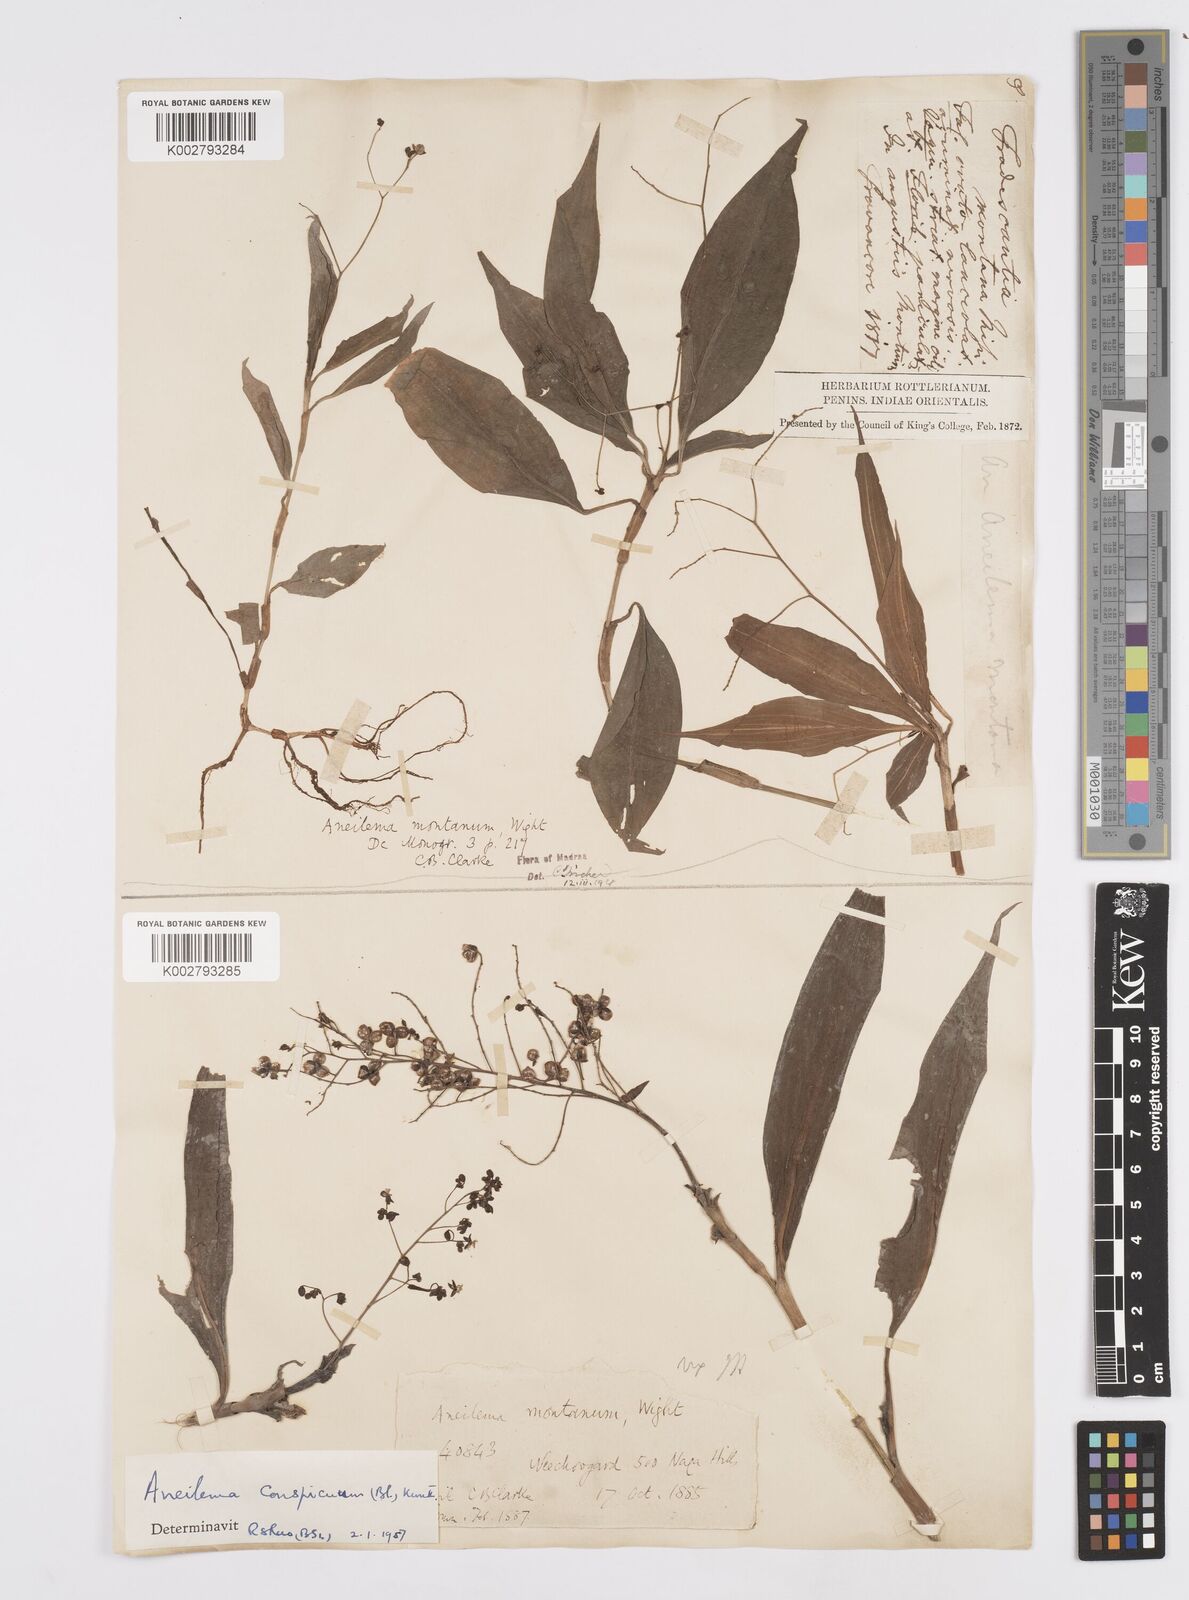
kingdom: Plantae
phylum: Tracheophyta
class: Liliopsida
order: Commelinales
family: Commelinaceae
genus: Murdannia
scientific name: Murdannia
